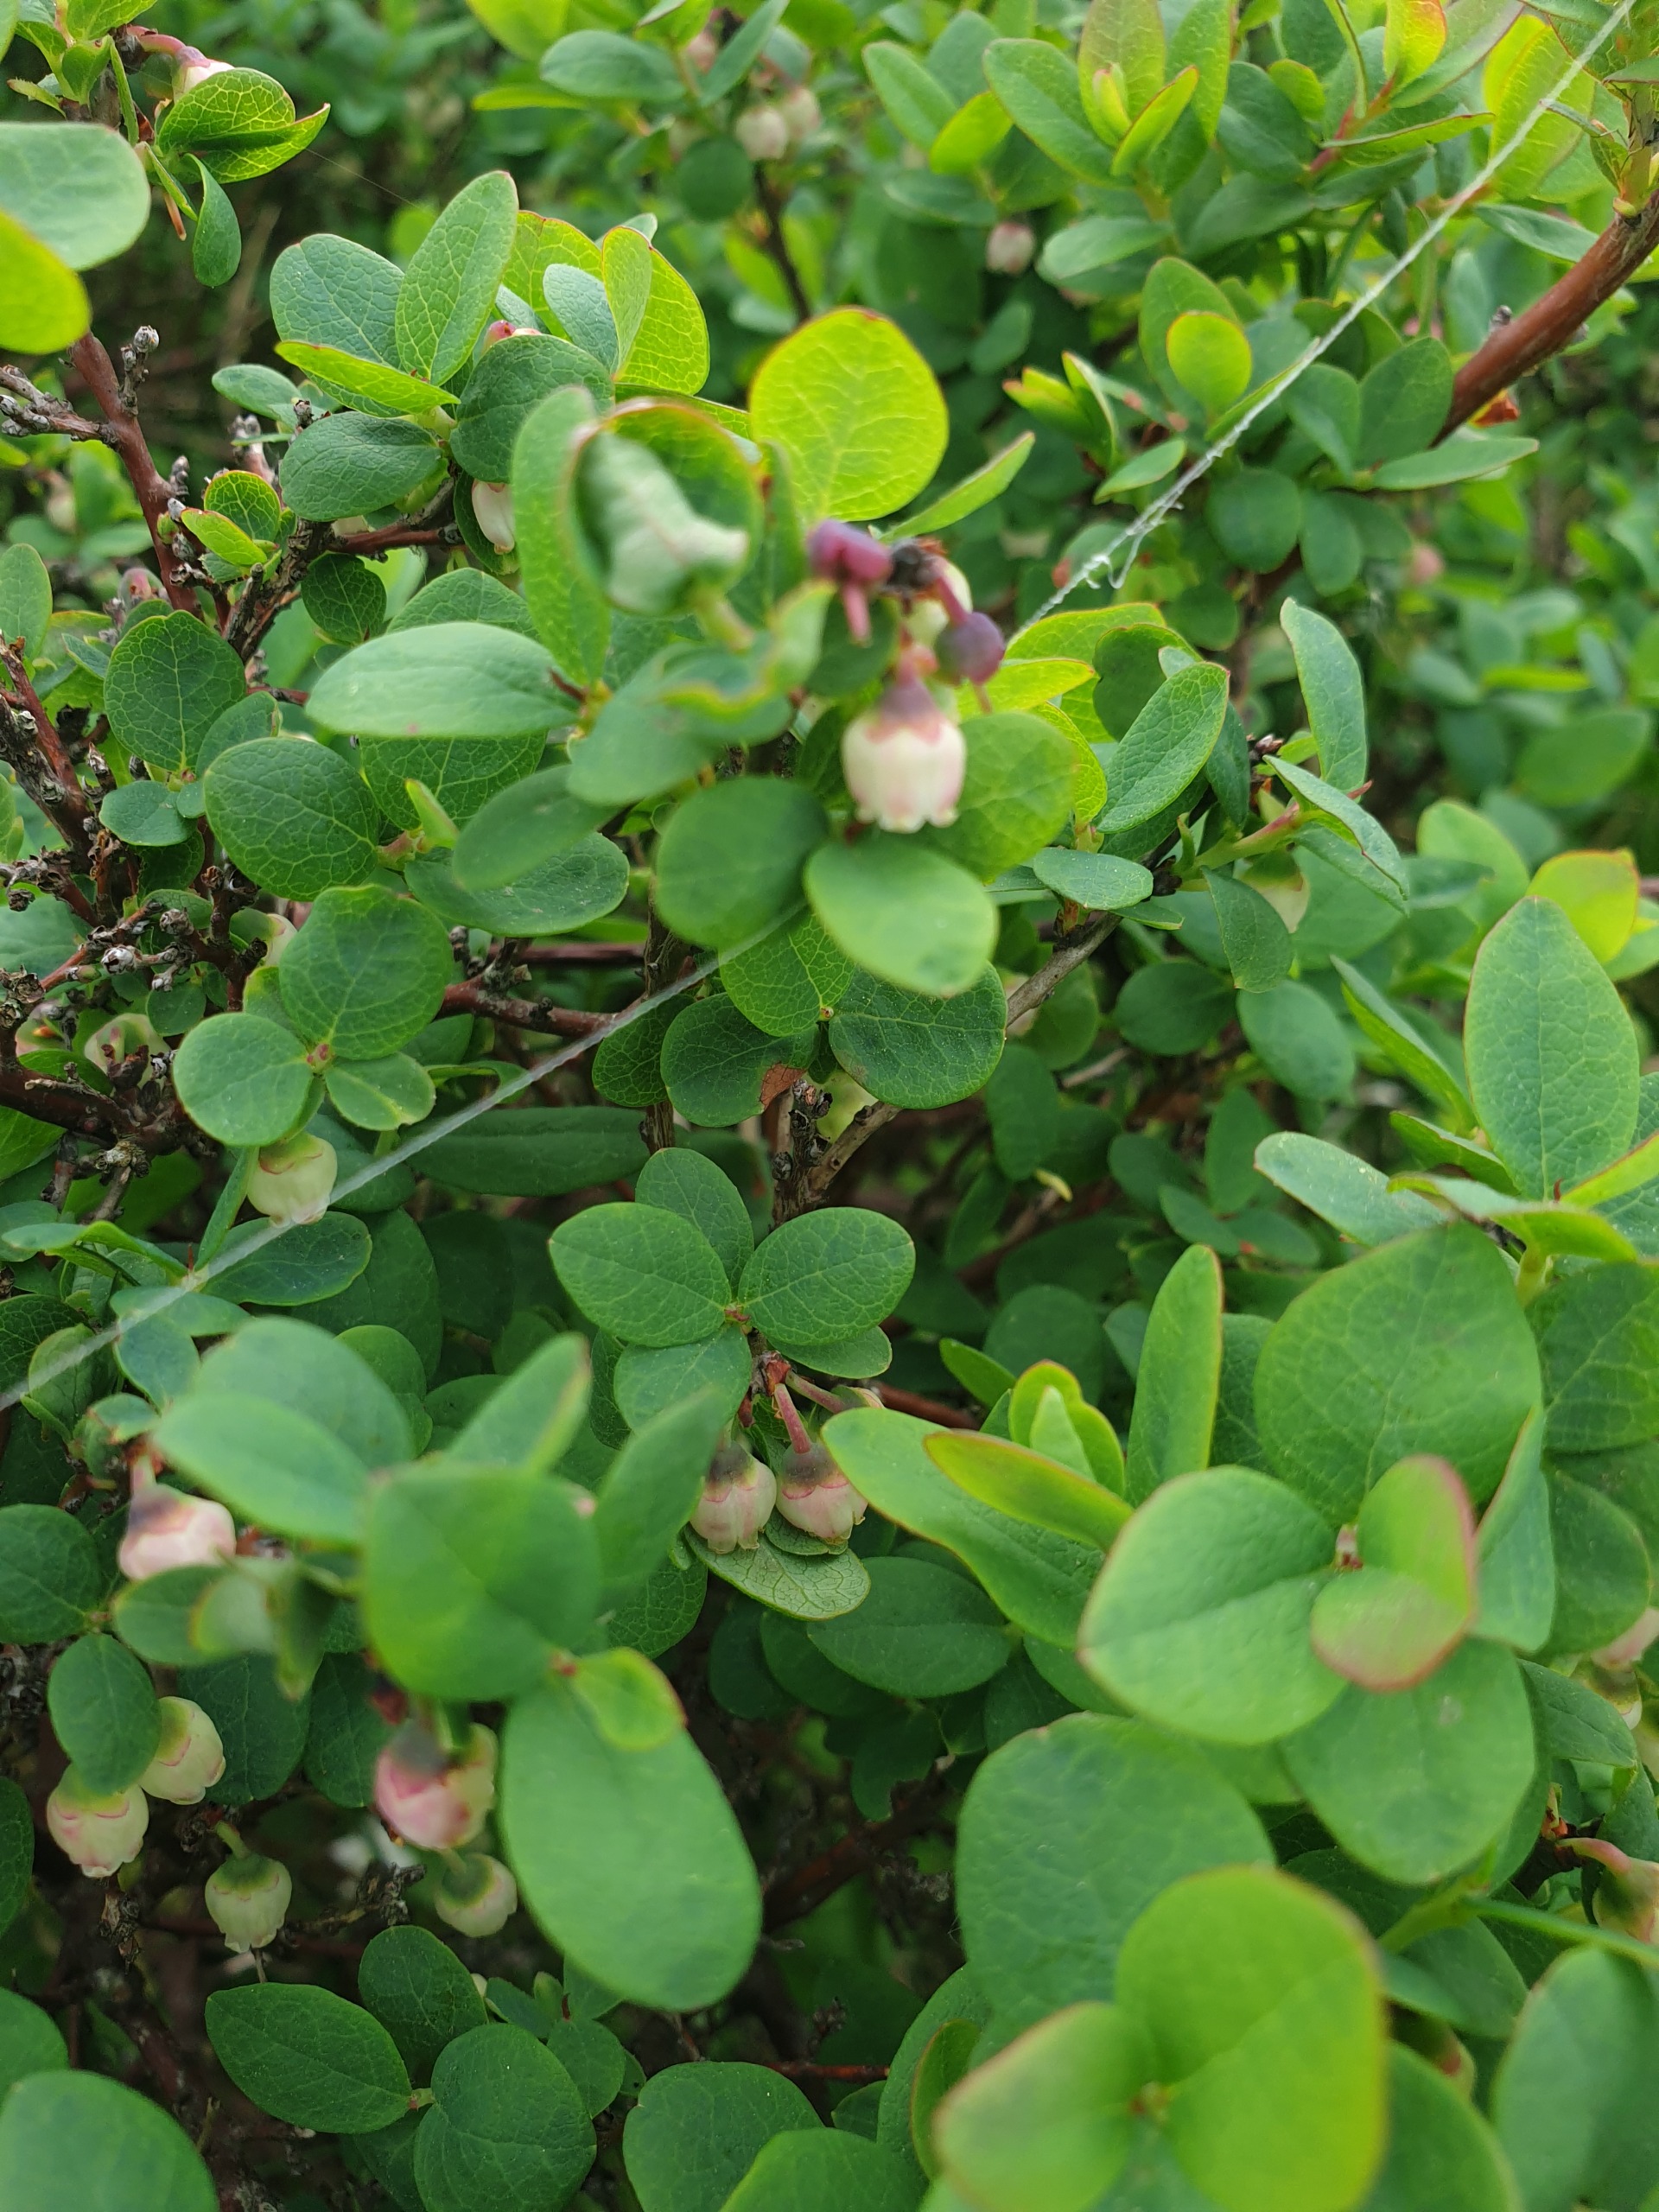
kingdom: Plantae
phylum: Tracheophyta
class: Magnoliopsida
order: Ericales
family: Ericaceae
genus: Vaccinium
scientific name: Vaccinium uliginosum
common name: Mose-bølle
